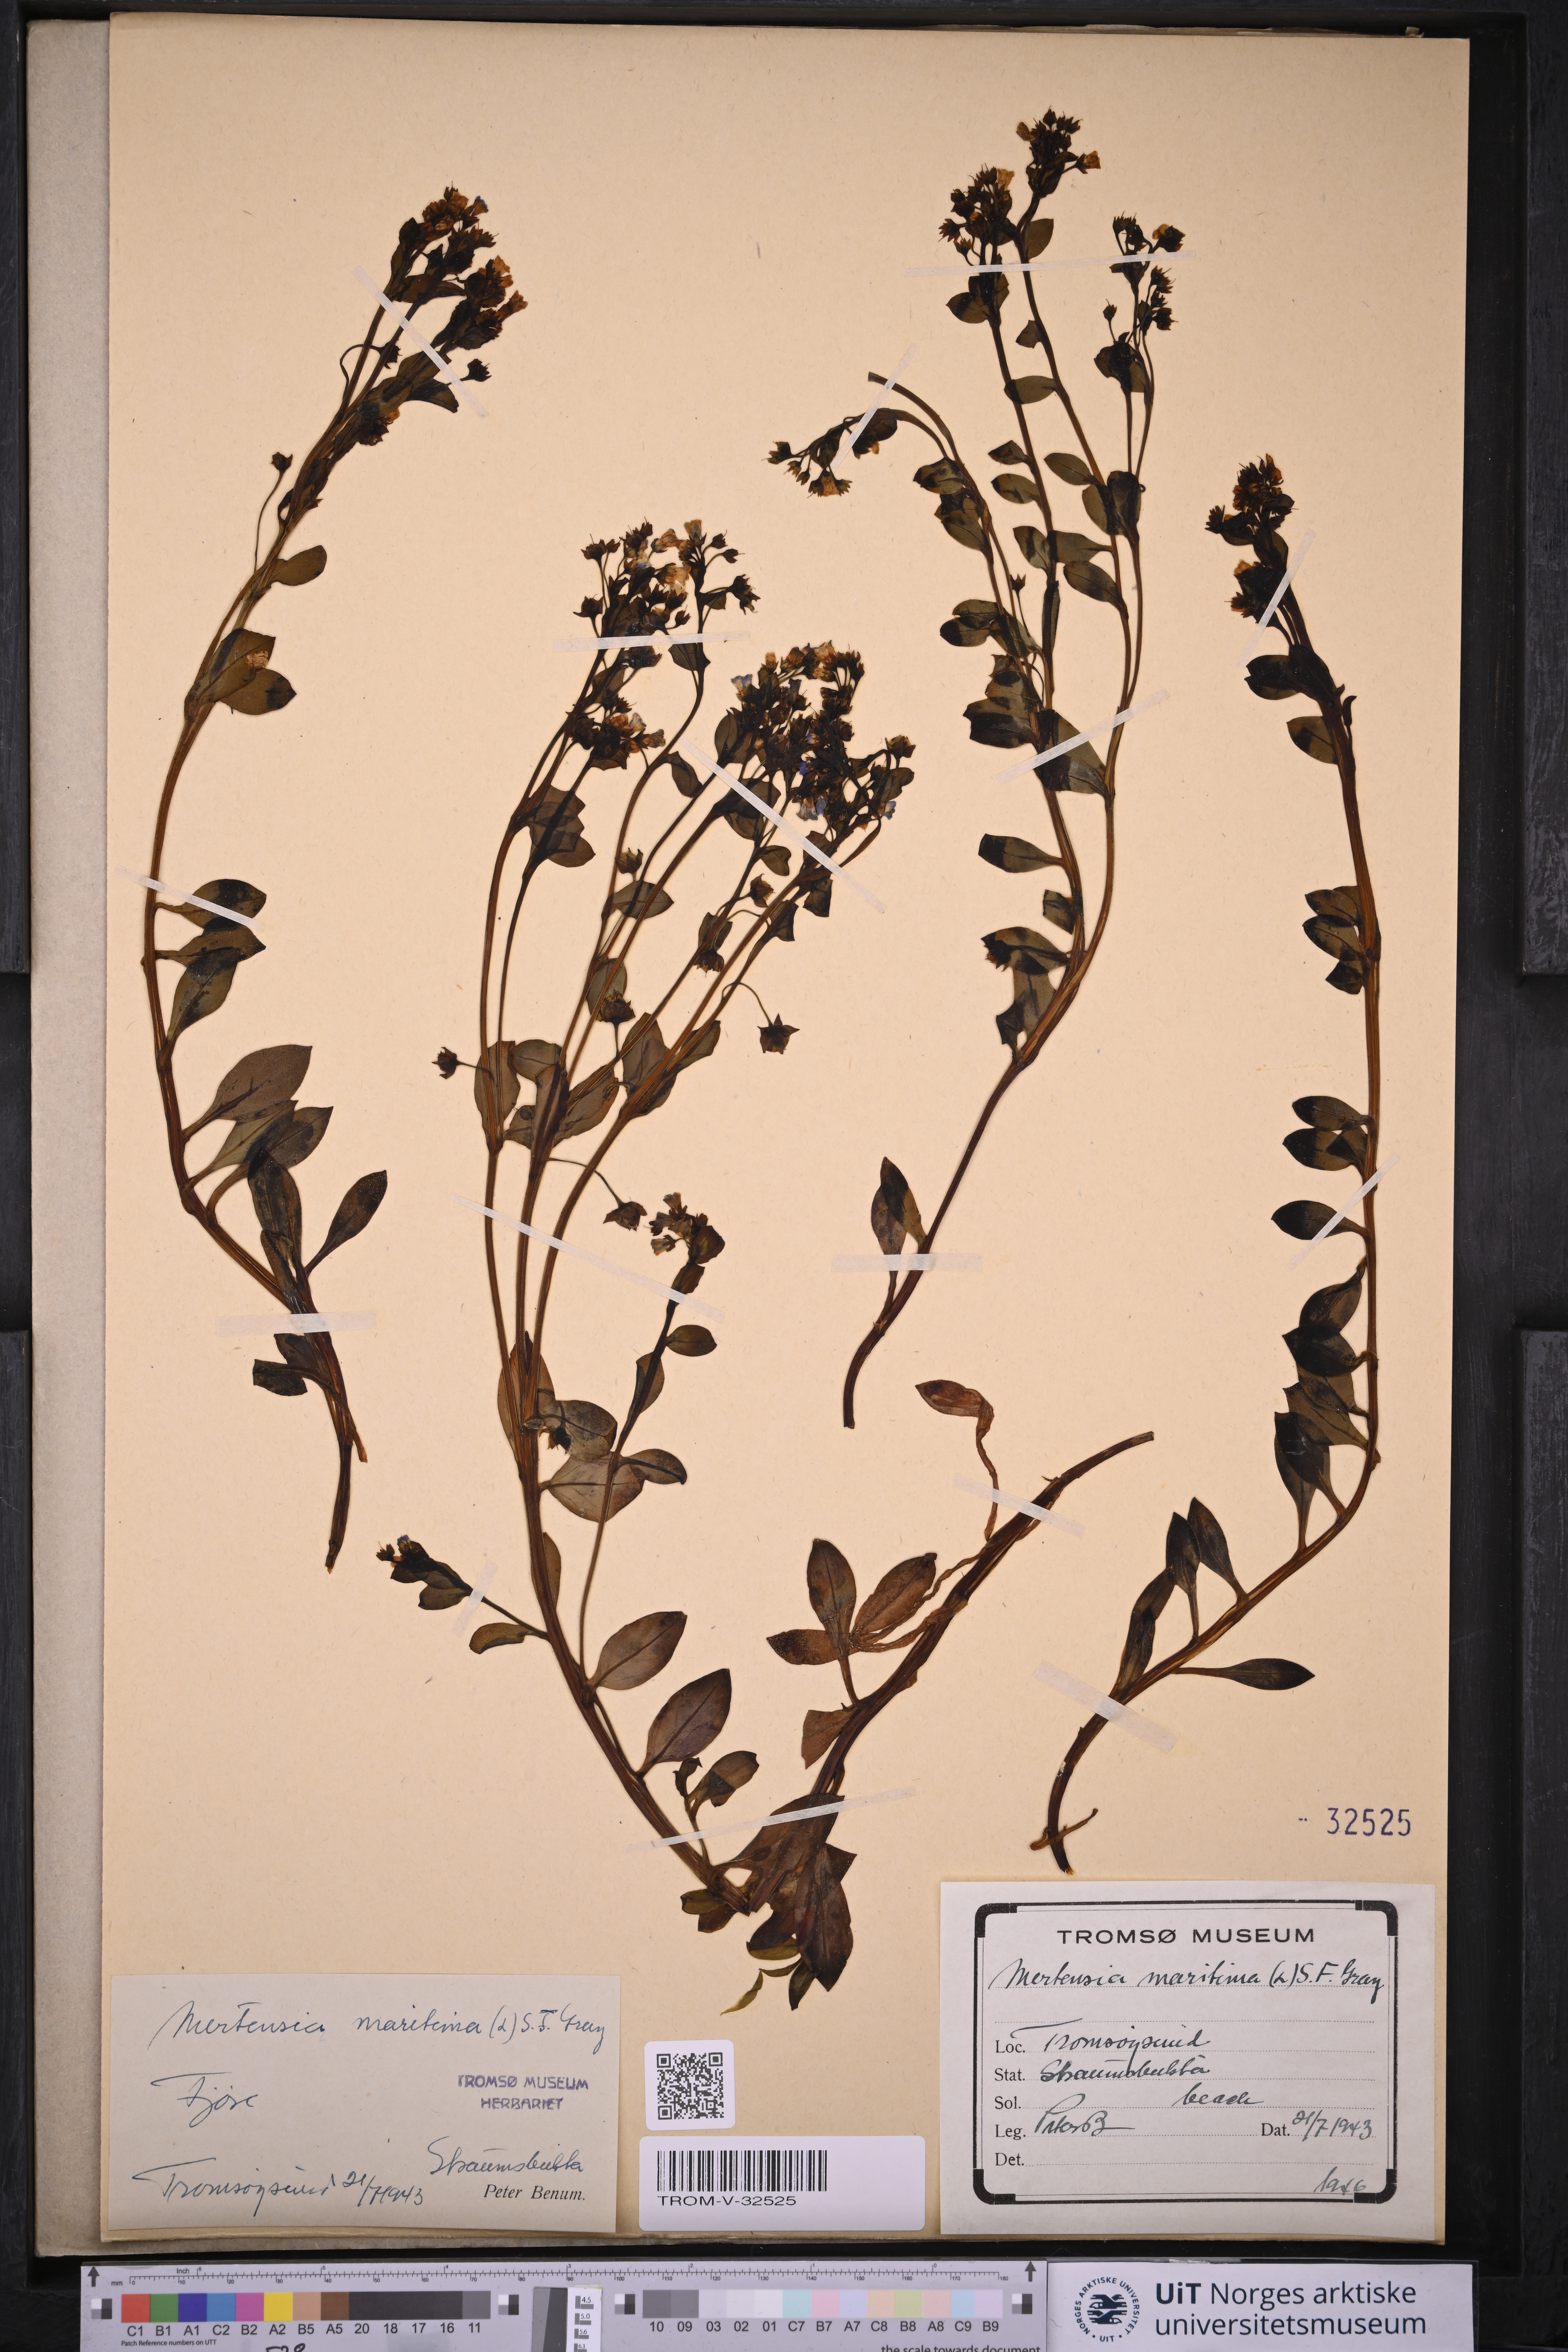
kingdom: Plantae
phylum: Tracheophyta
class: Magnoliopsida
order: Boraginales
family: Boraginaceae
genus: Mertensia
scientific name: Mertensia maritima
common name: Oysterplant
